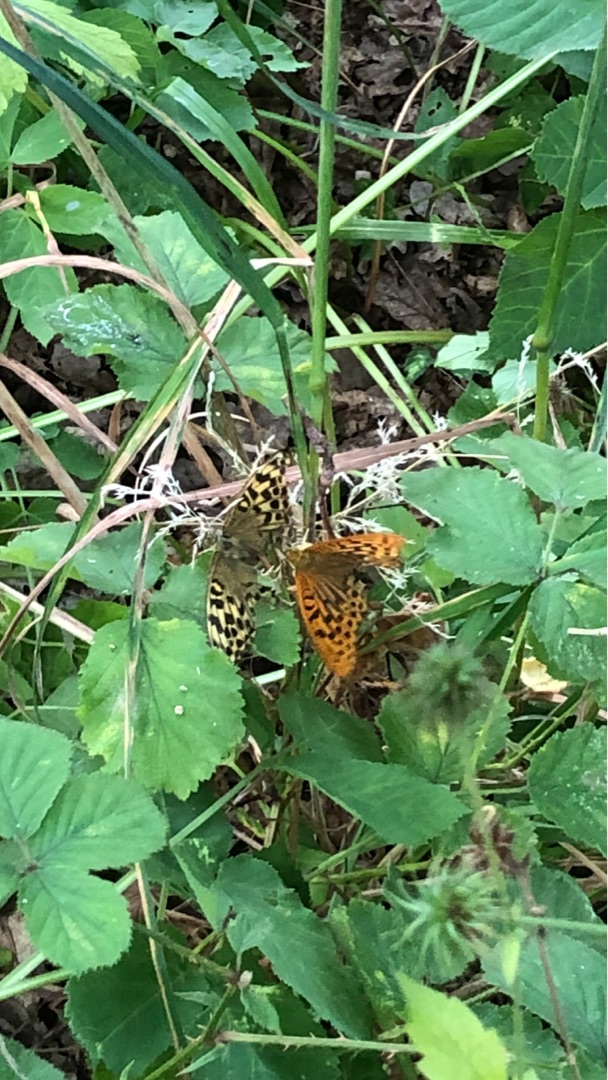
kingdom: Animalia
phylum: Arthropoda
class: Insecta
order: Lepidoptera
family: Nymphalidae
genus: Argynnis
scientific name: Argynnis paphia
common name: Kejserkåbe
